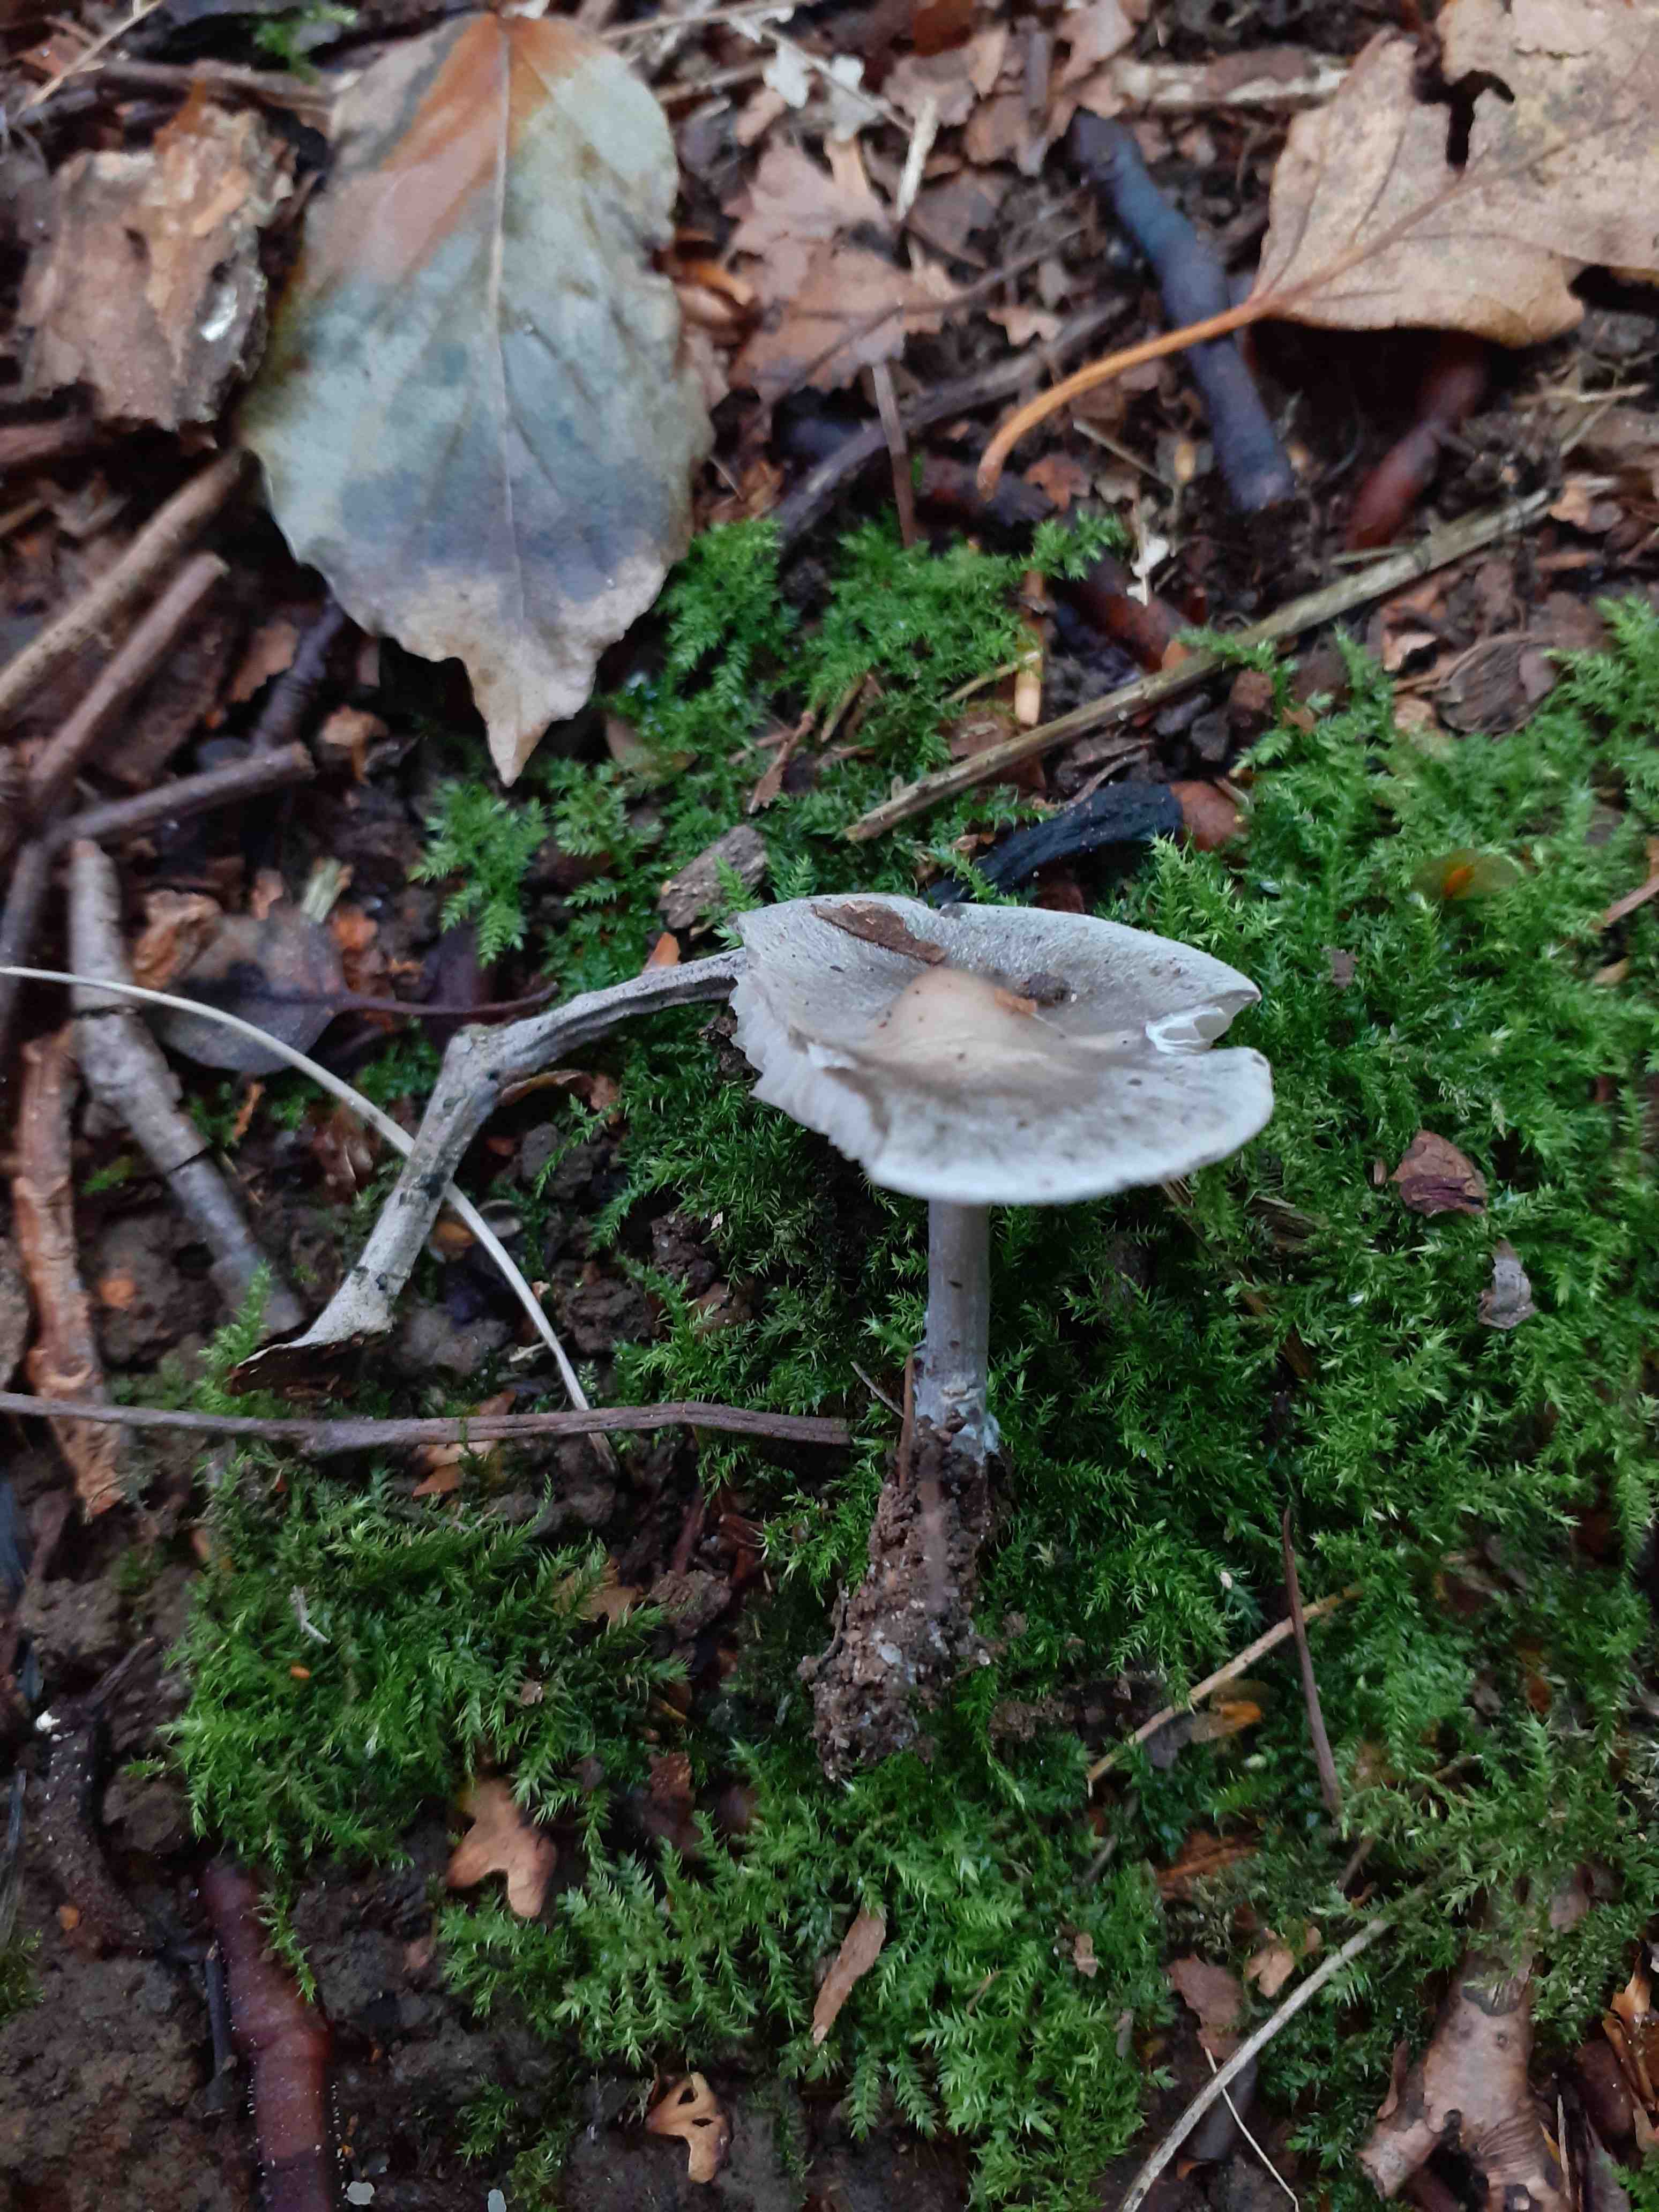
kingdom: Fungi
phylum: Basidiomycota
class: Agaricomycetes
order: Agaricales
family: Lyophyllaceae
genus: Tephrocybe
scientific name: Tephrocybe rancida
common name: mel-gråblad
